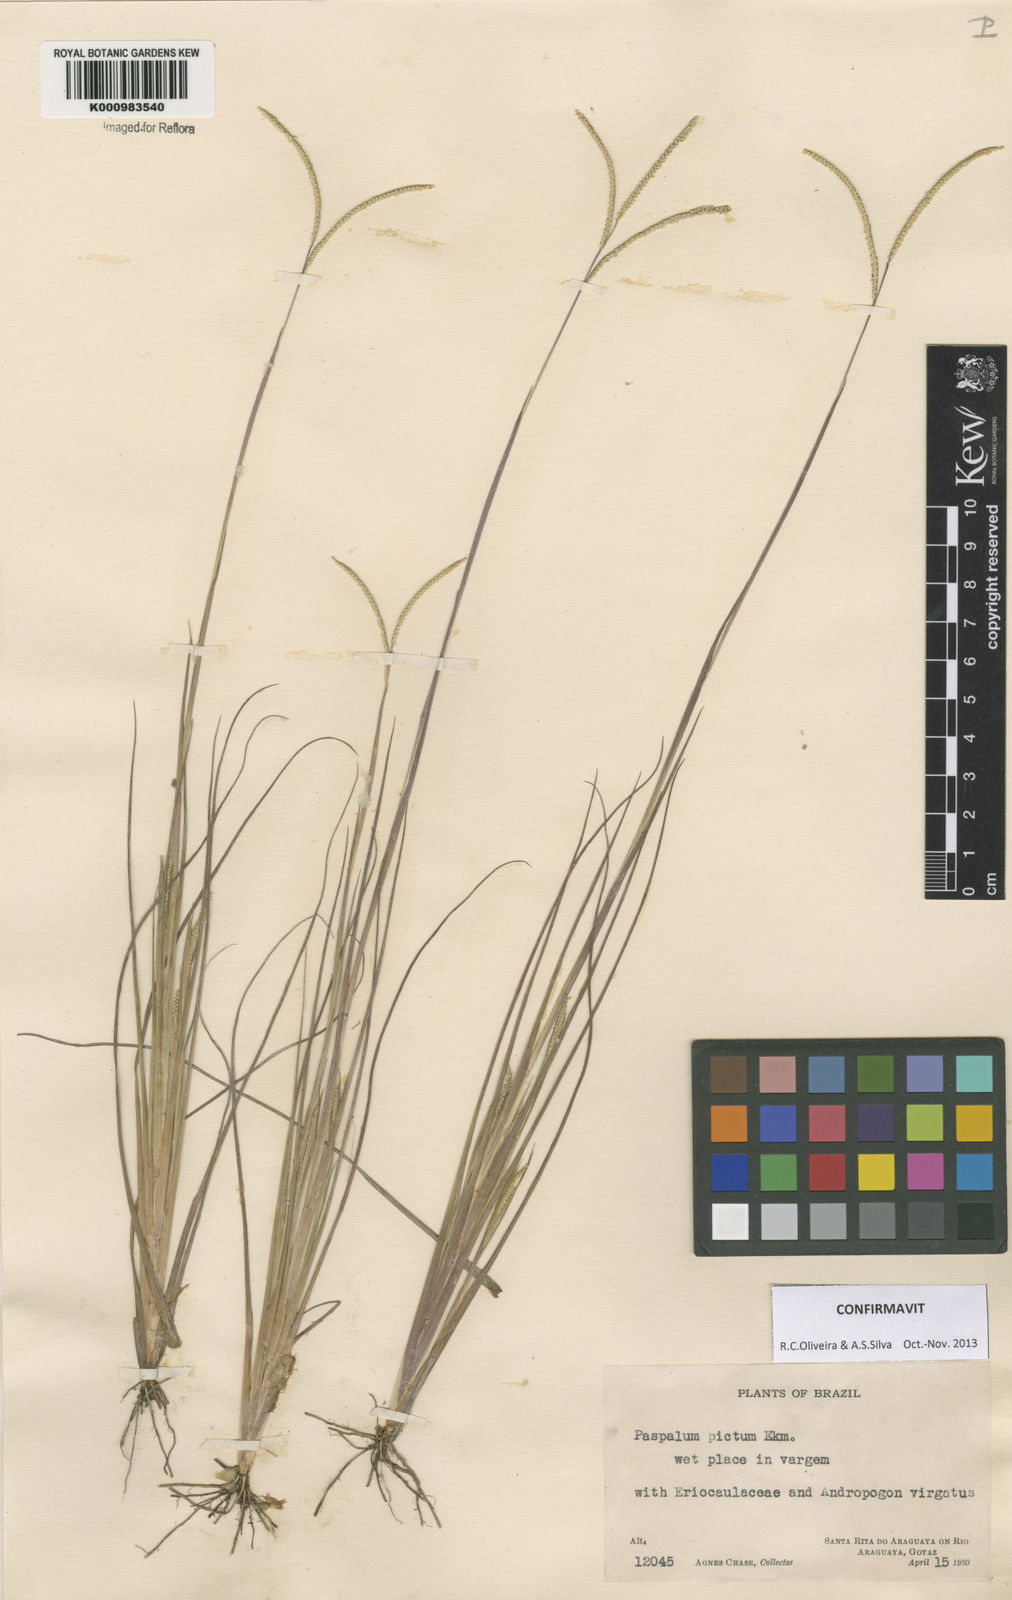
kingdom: Plantae
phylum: Tracheophyta
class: Liliopsida
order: Poales
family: Poaceae
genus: Paspalum
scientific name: Paspalum pictum
